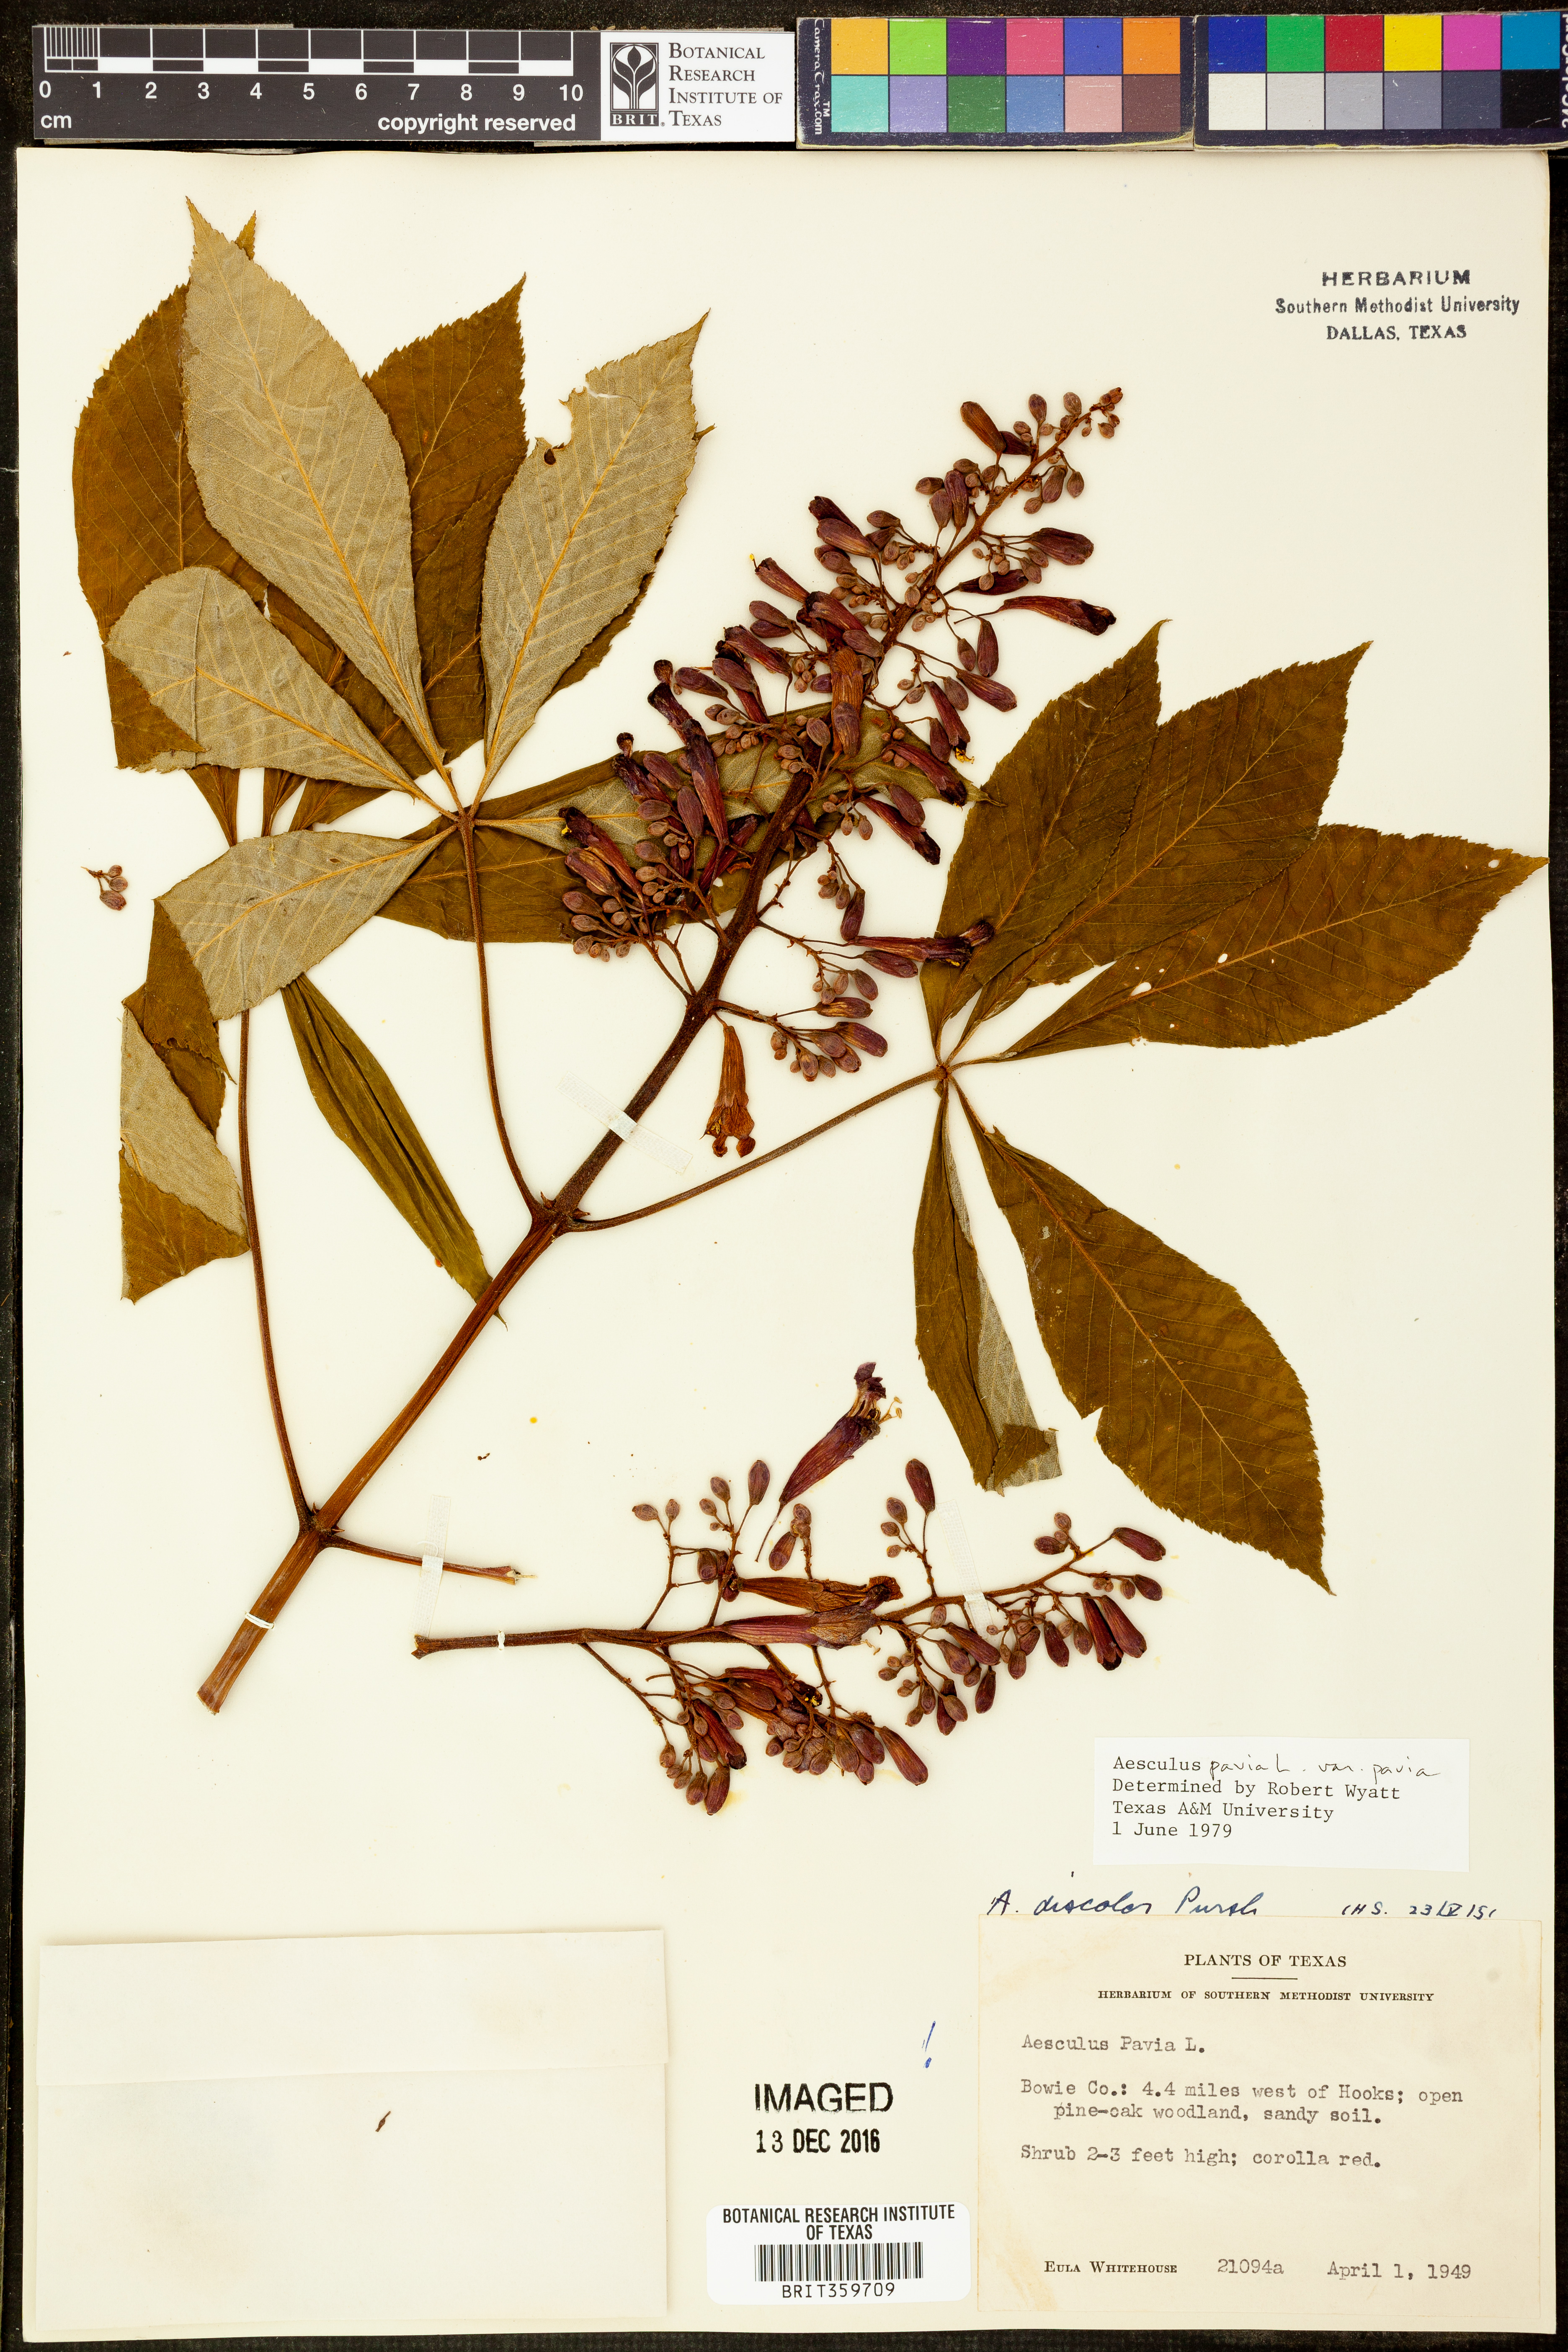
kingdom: Plantae
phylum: Tracheophyta
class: Magnoliopsida
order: Sapindales
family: Sapindaceae
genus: Aesculus
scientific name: Aesculus pavia
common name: Red buckeye
